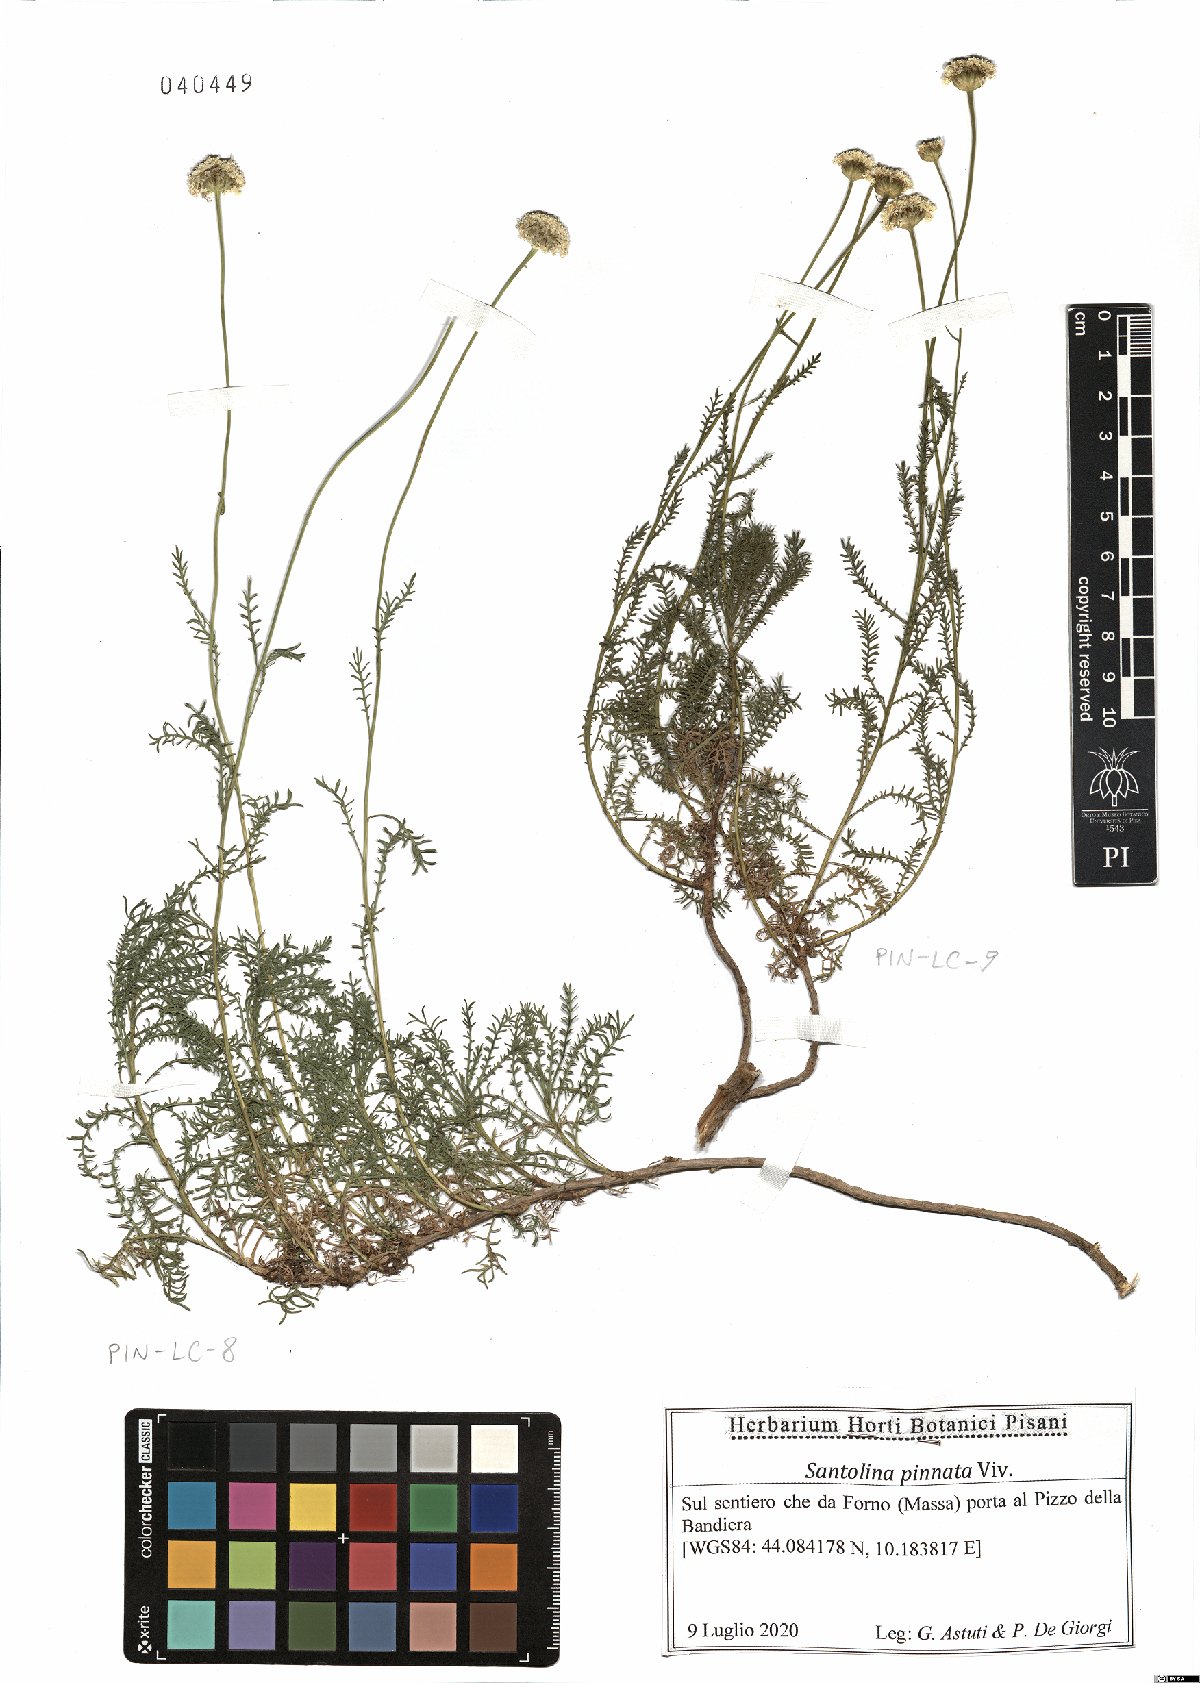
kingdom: Plantae
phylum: Tracheophyta
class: Magnoliopsida
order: Asterales
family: Asteraceae
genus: Santolina
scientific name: Santolina pinnata
